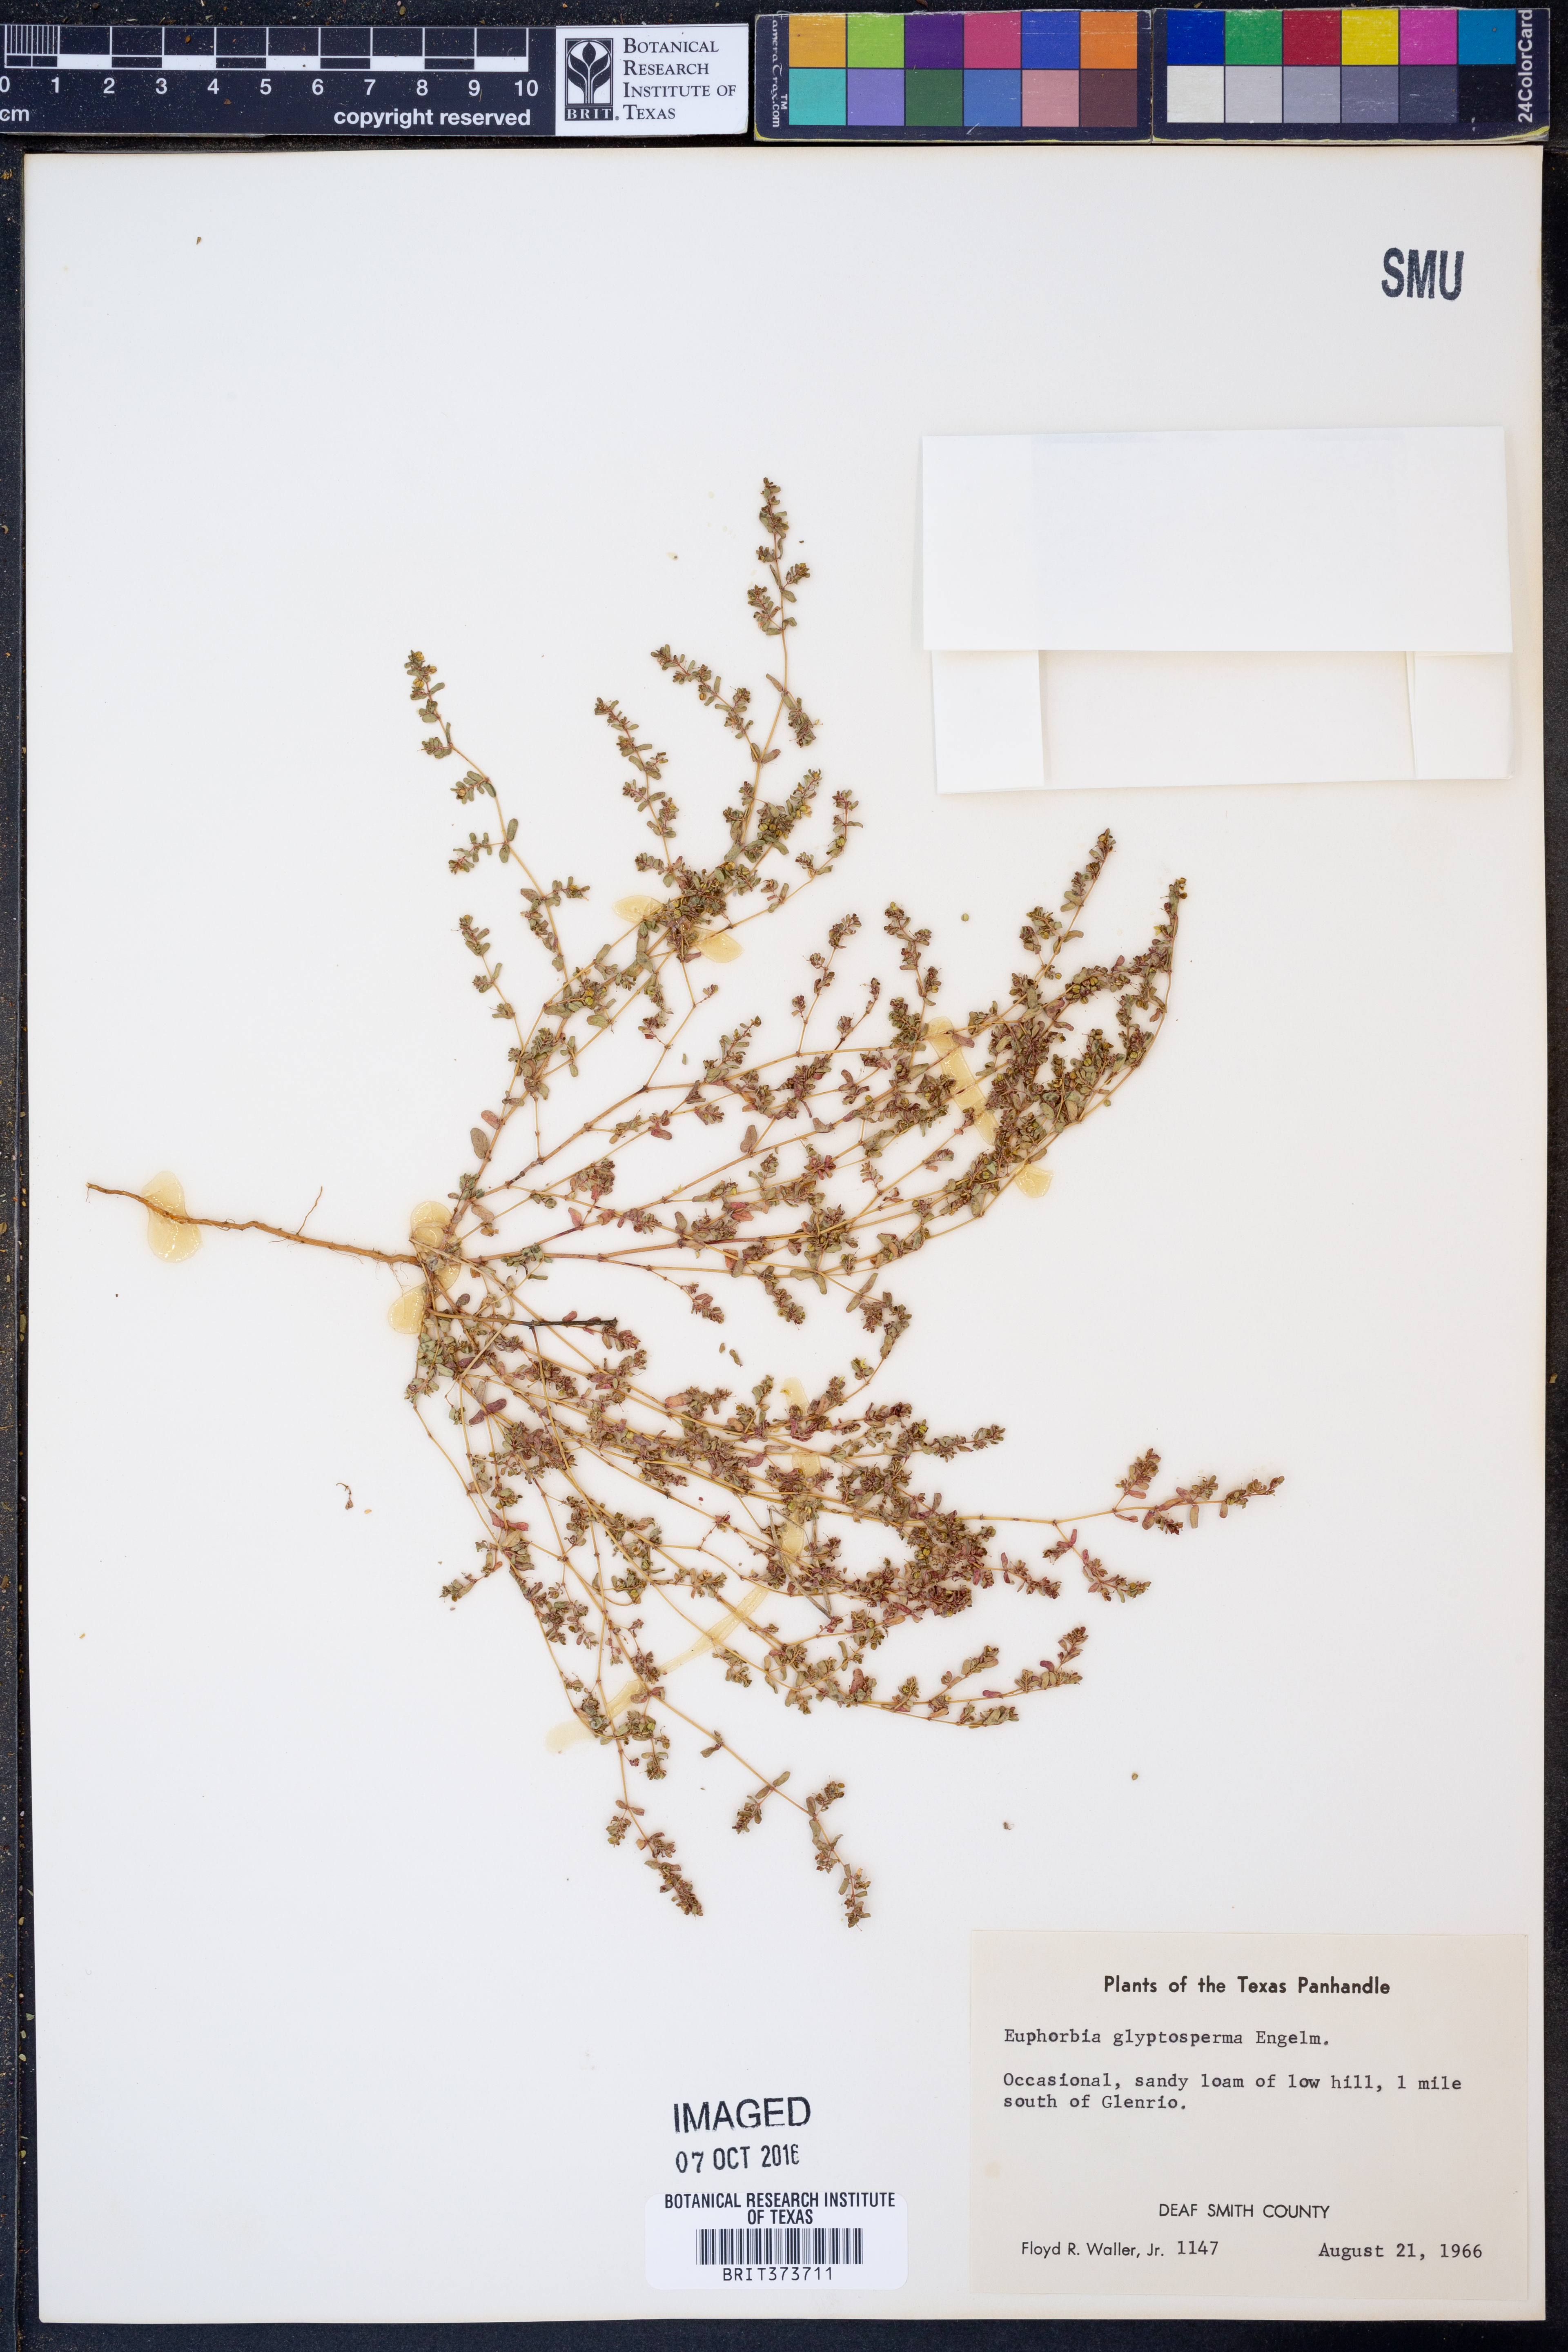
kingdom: Plantae
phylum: Tracheophyta
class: Magnoliopsida
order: Malpighiales
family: Euphorbiaceae
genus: Euphorbia
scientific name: Euphorbia glyptosperma
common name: Corrugate-seeded spurge
